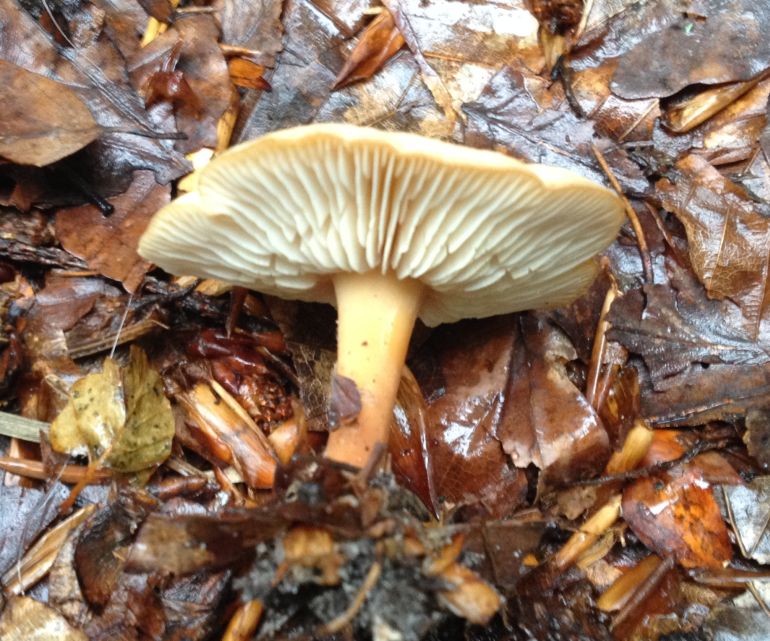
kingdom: Fungi
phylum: Basidiomycota
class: Agaricomycetes
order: Agaricales
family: Omphalotaceae
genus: Gymnopus
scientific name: Gymnopus dryophilus
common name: løv-fladhat
